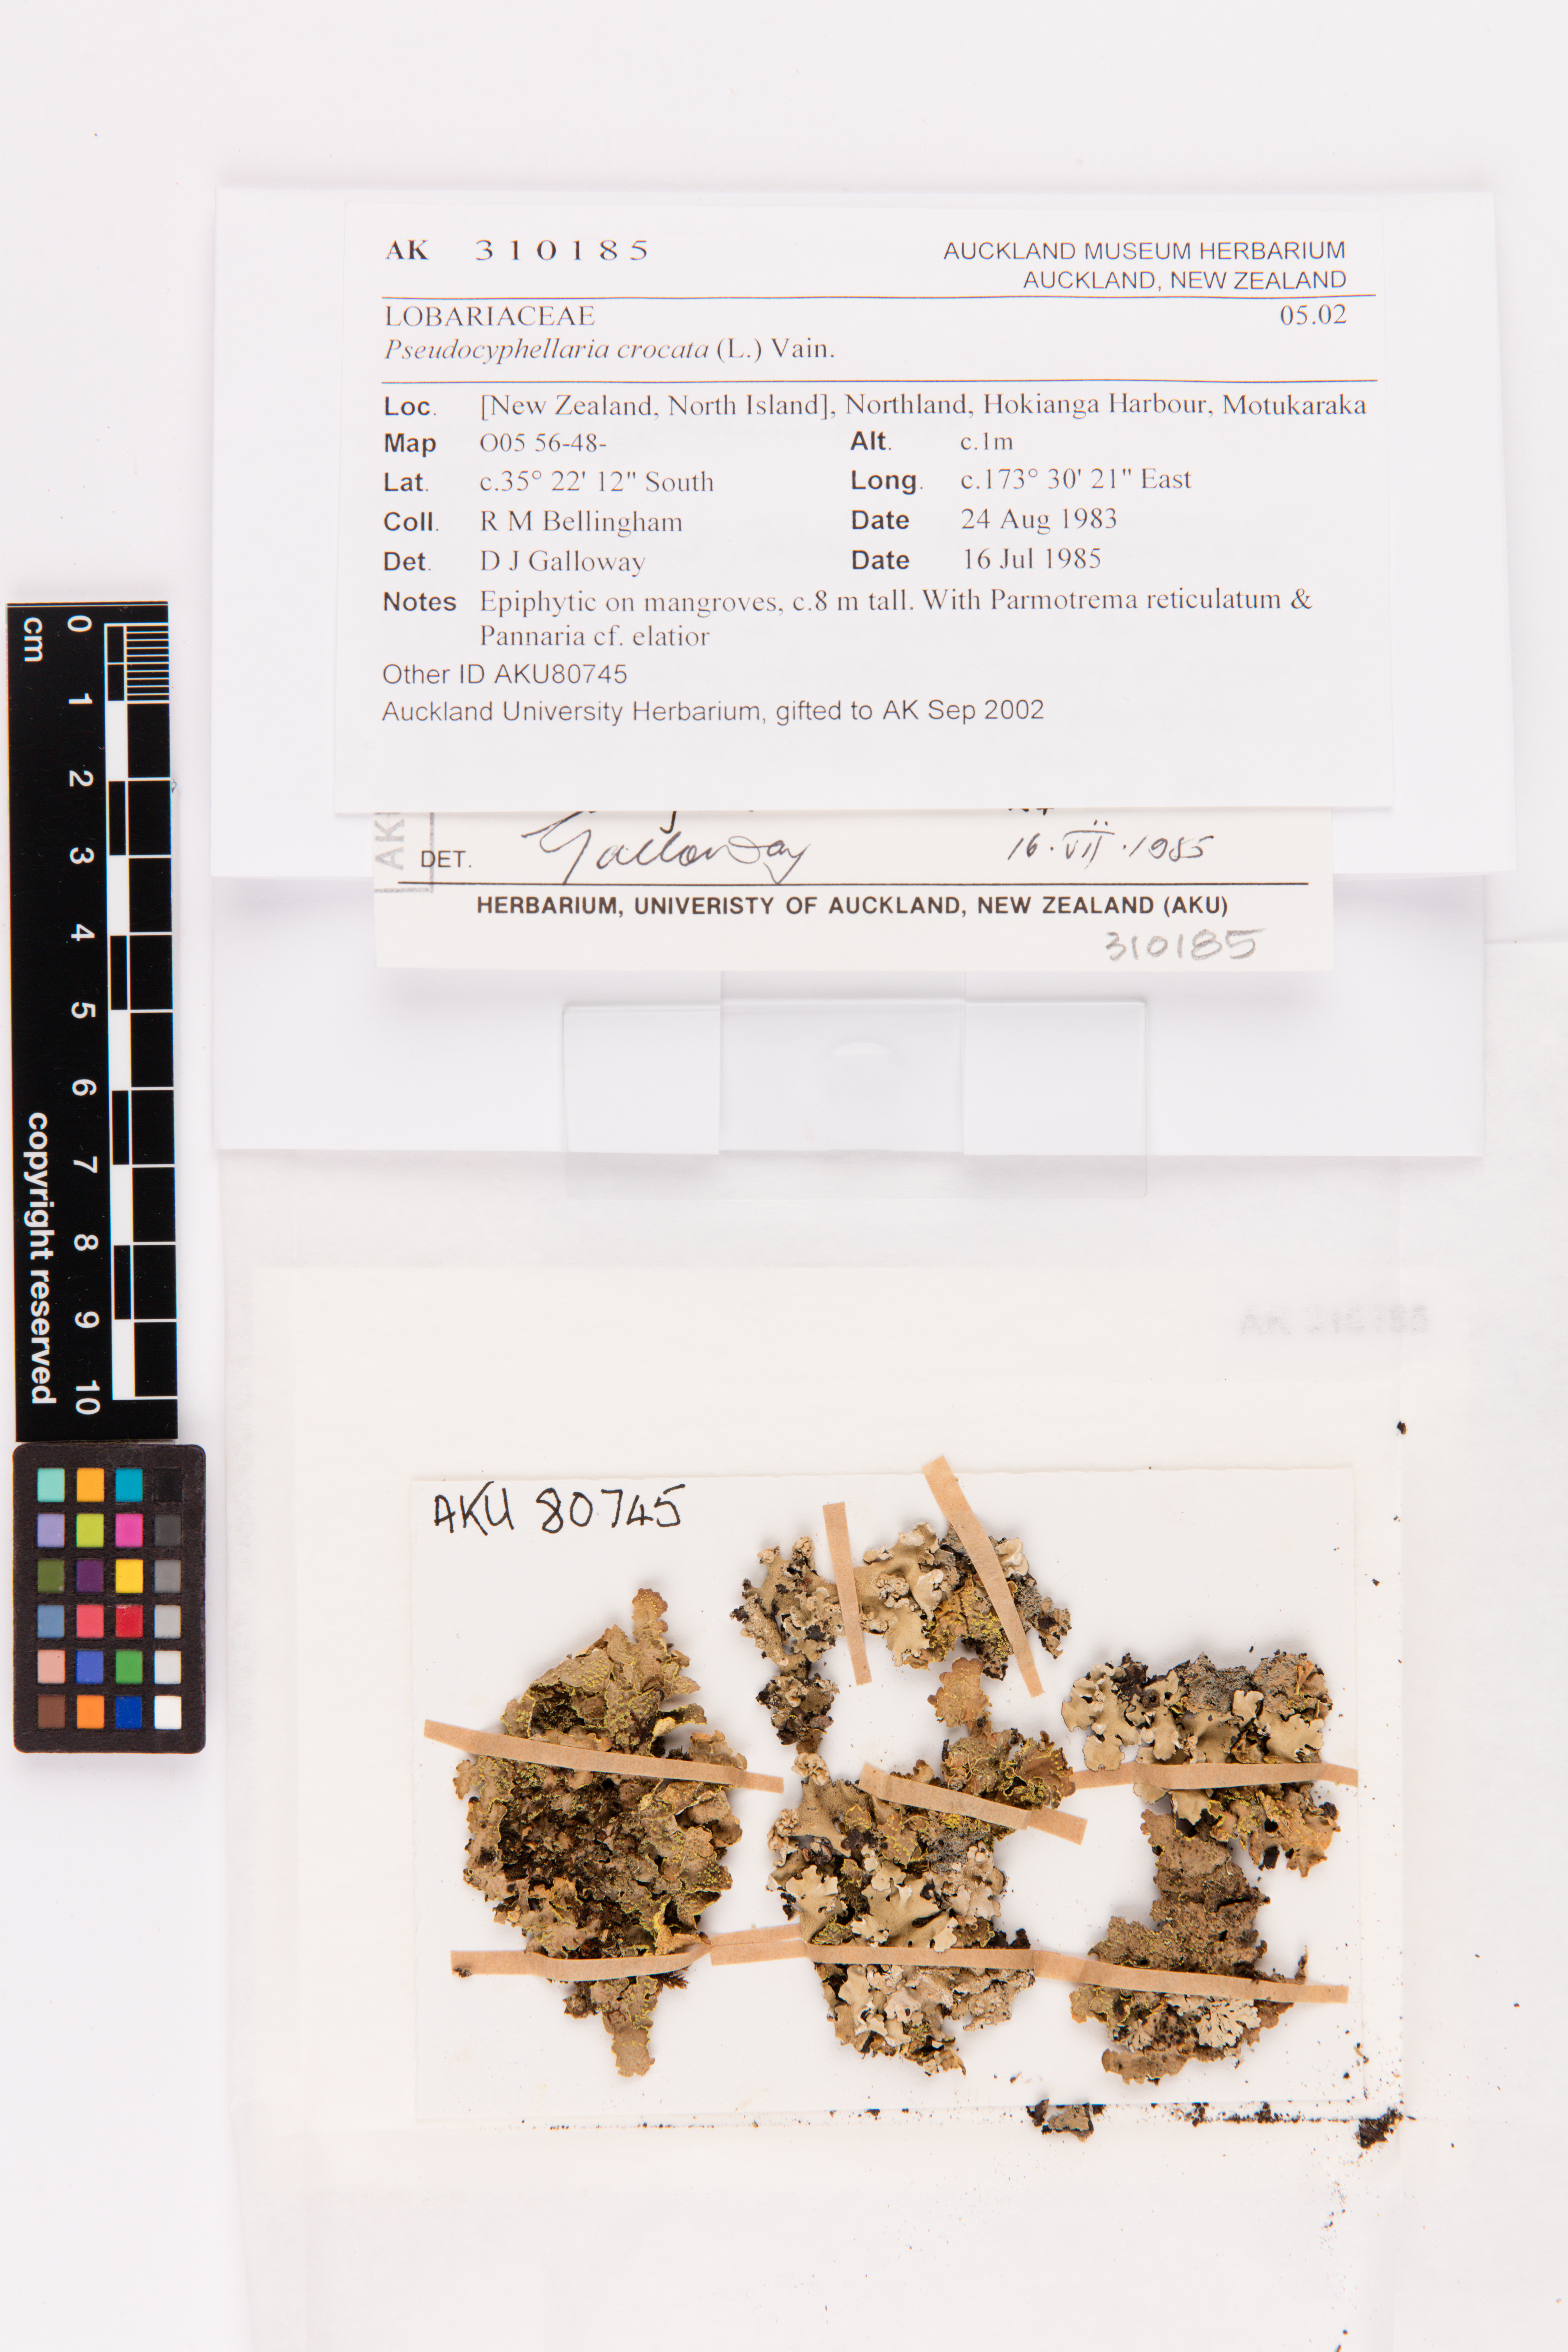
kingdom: Fungi
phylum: Ascomycota
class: Lecanoromycetes
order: Peltigerales
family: Lobariaceae
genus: Pseudocyphellaria
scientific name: Pseudocyphellaria crocata
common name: Golden specklebelly
